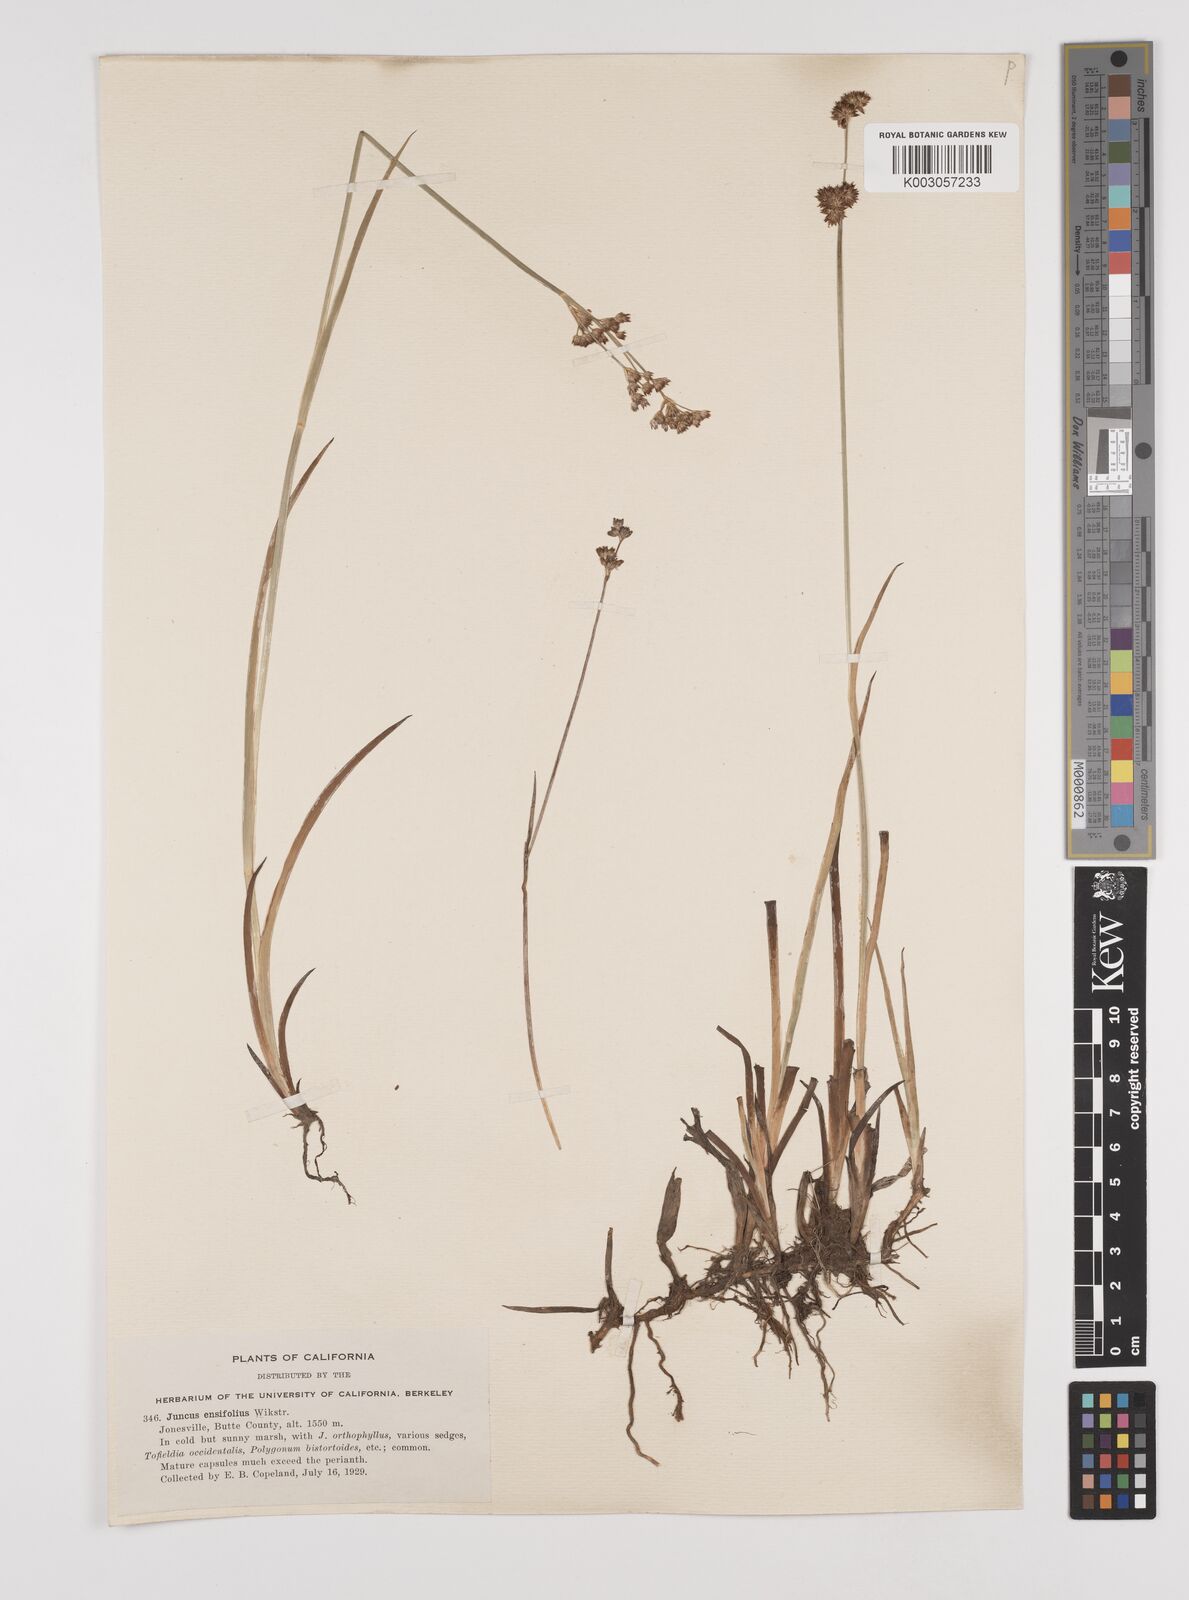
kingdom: Plantae
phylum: Tracheophyta
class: Liliopsida
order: Poales
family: Juncaceae
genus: Juncus
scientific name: Juncus ensifolius
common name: Sword-leaved rush
